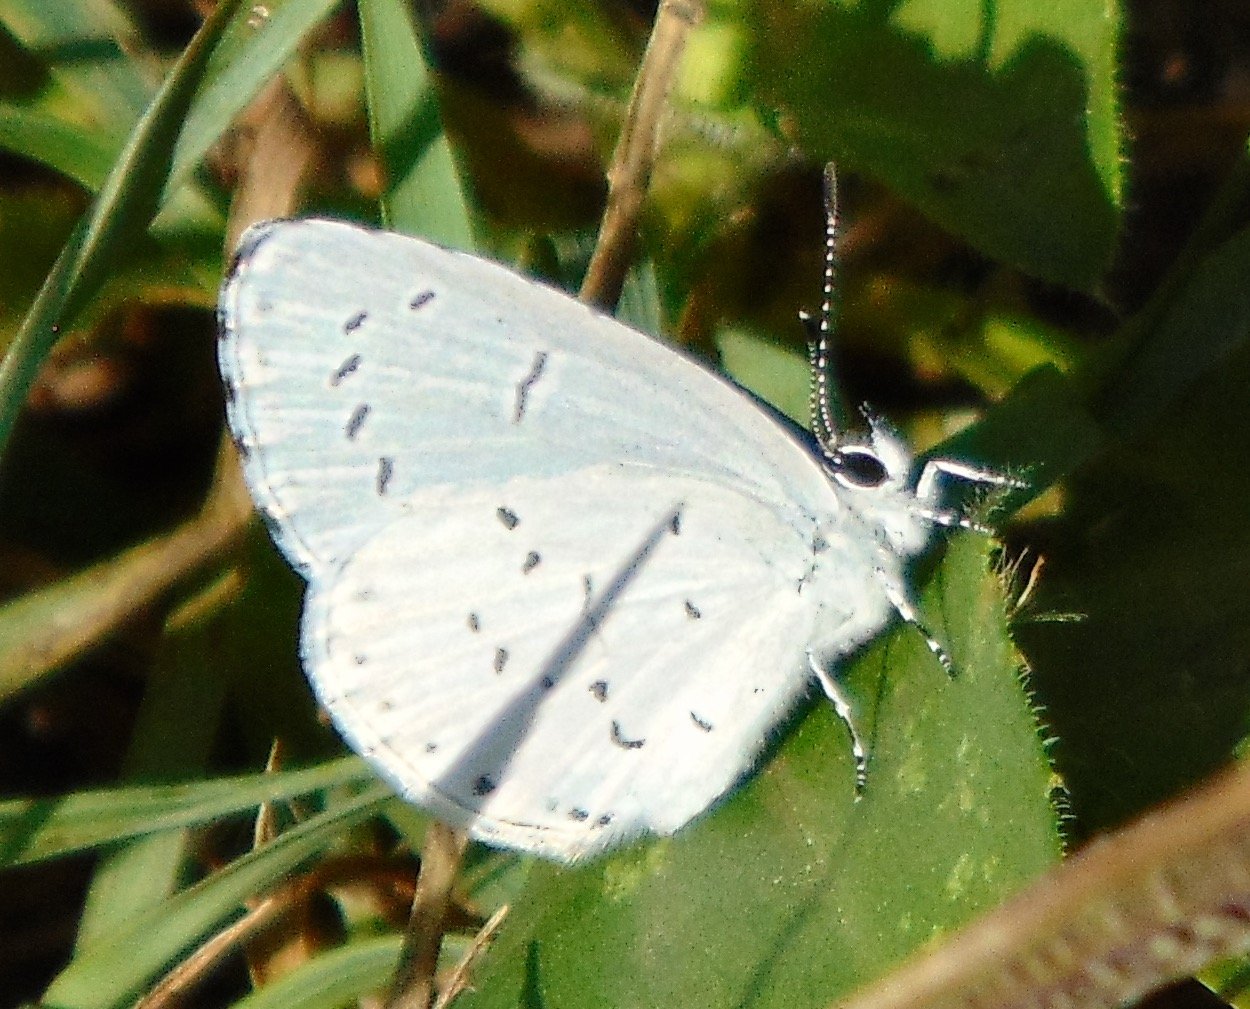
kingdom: Animalia
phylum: Arthropoda
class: Insecta
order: Lepidoptera
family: Lycaenidae
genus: Cyaniris
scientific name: Cyaniris neglecta
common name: Summer Azure
